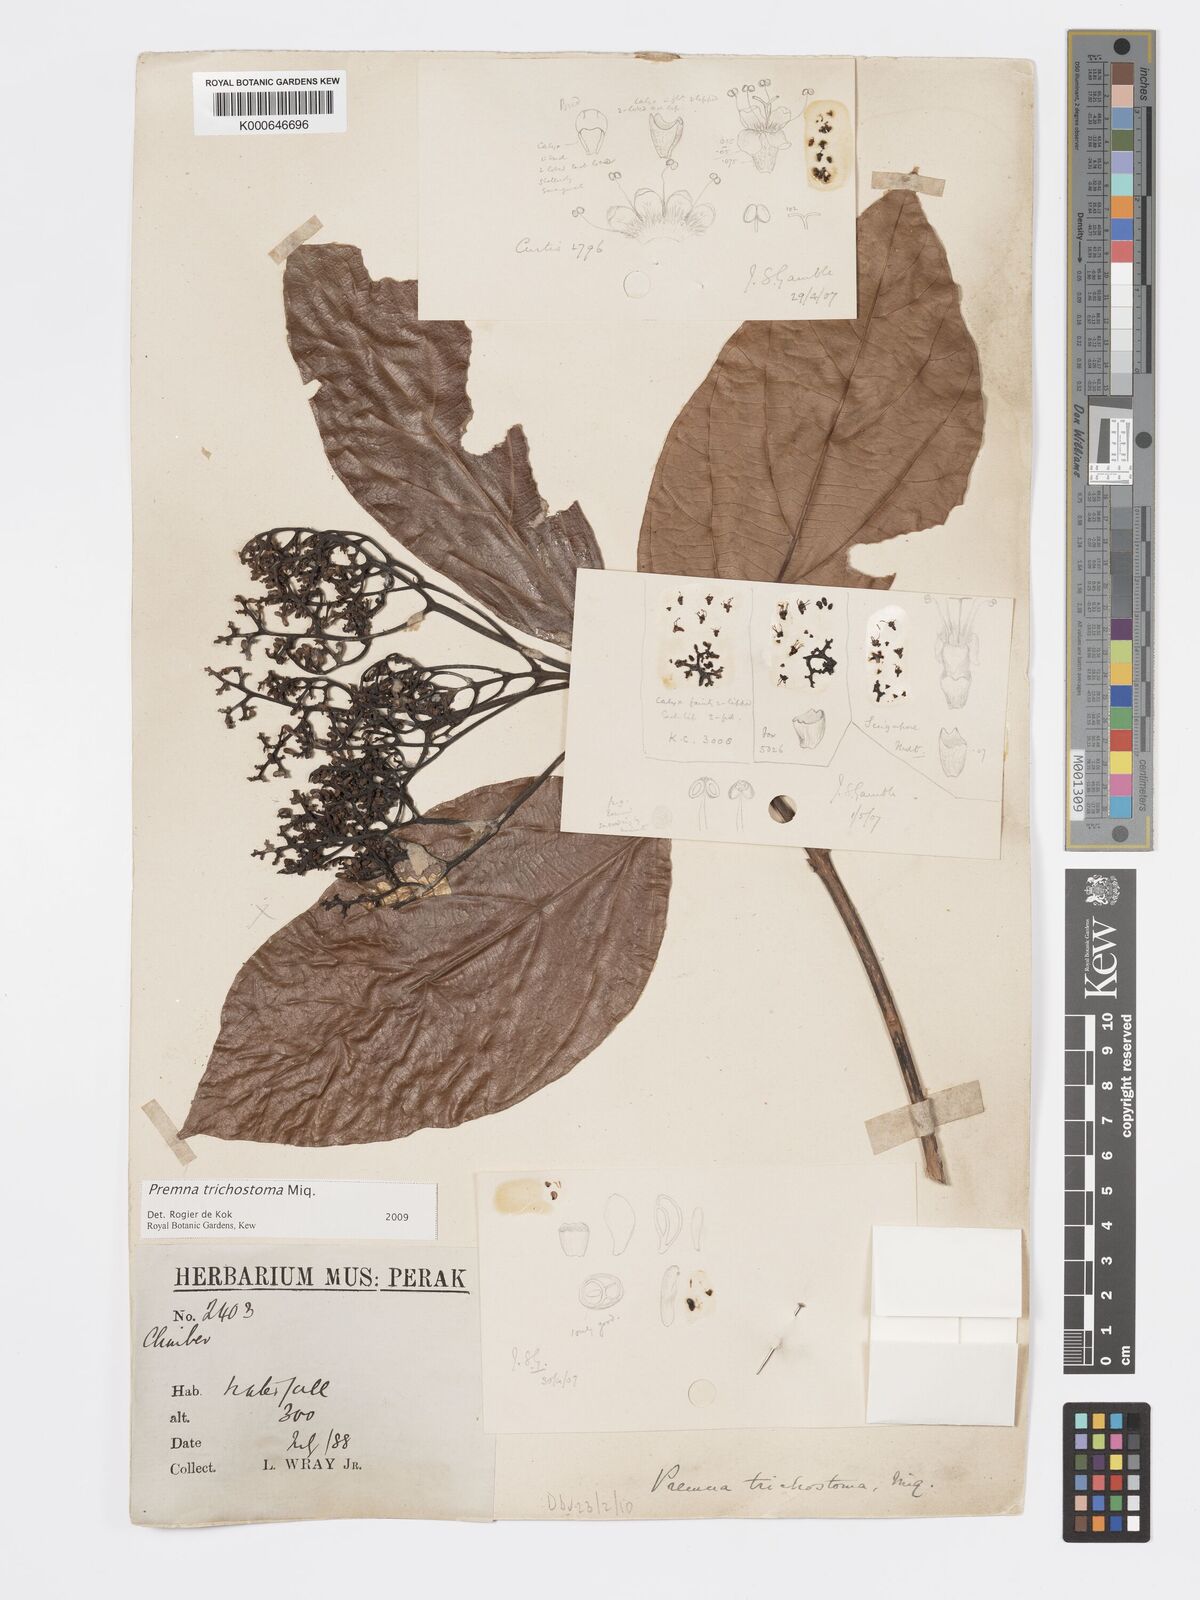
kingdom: Plantae
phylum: Tracheophyta
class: Magnoliopsida
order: Lamiales
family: Lamiaceae
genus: Premna
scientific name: Premna trichostoma
